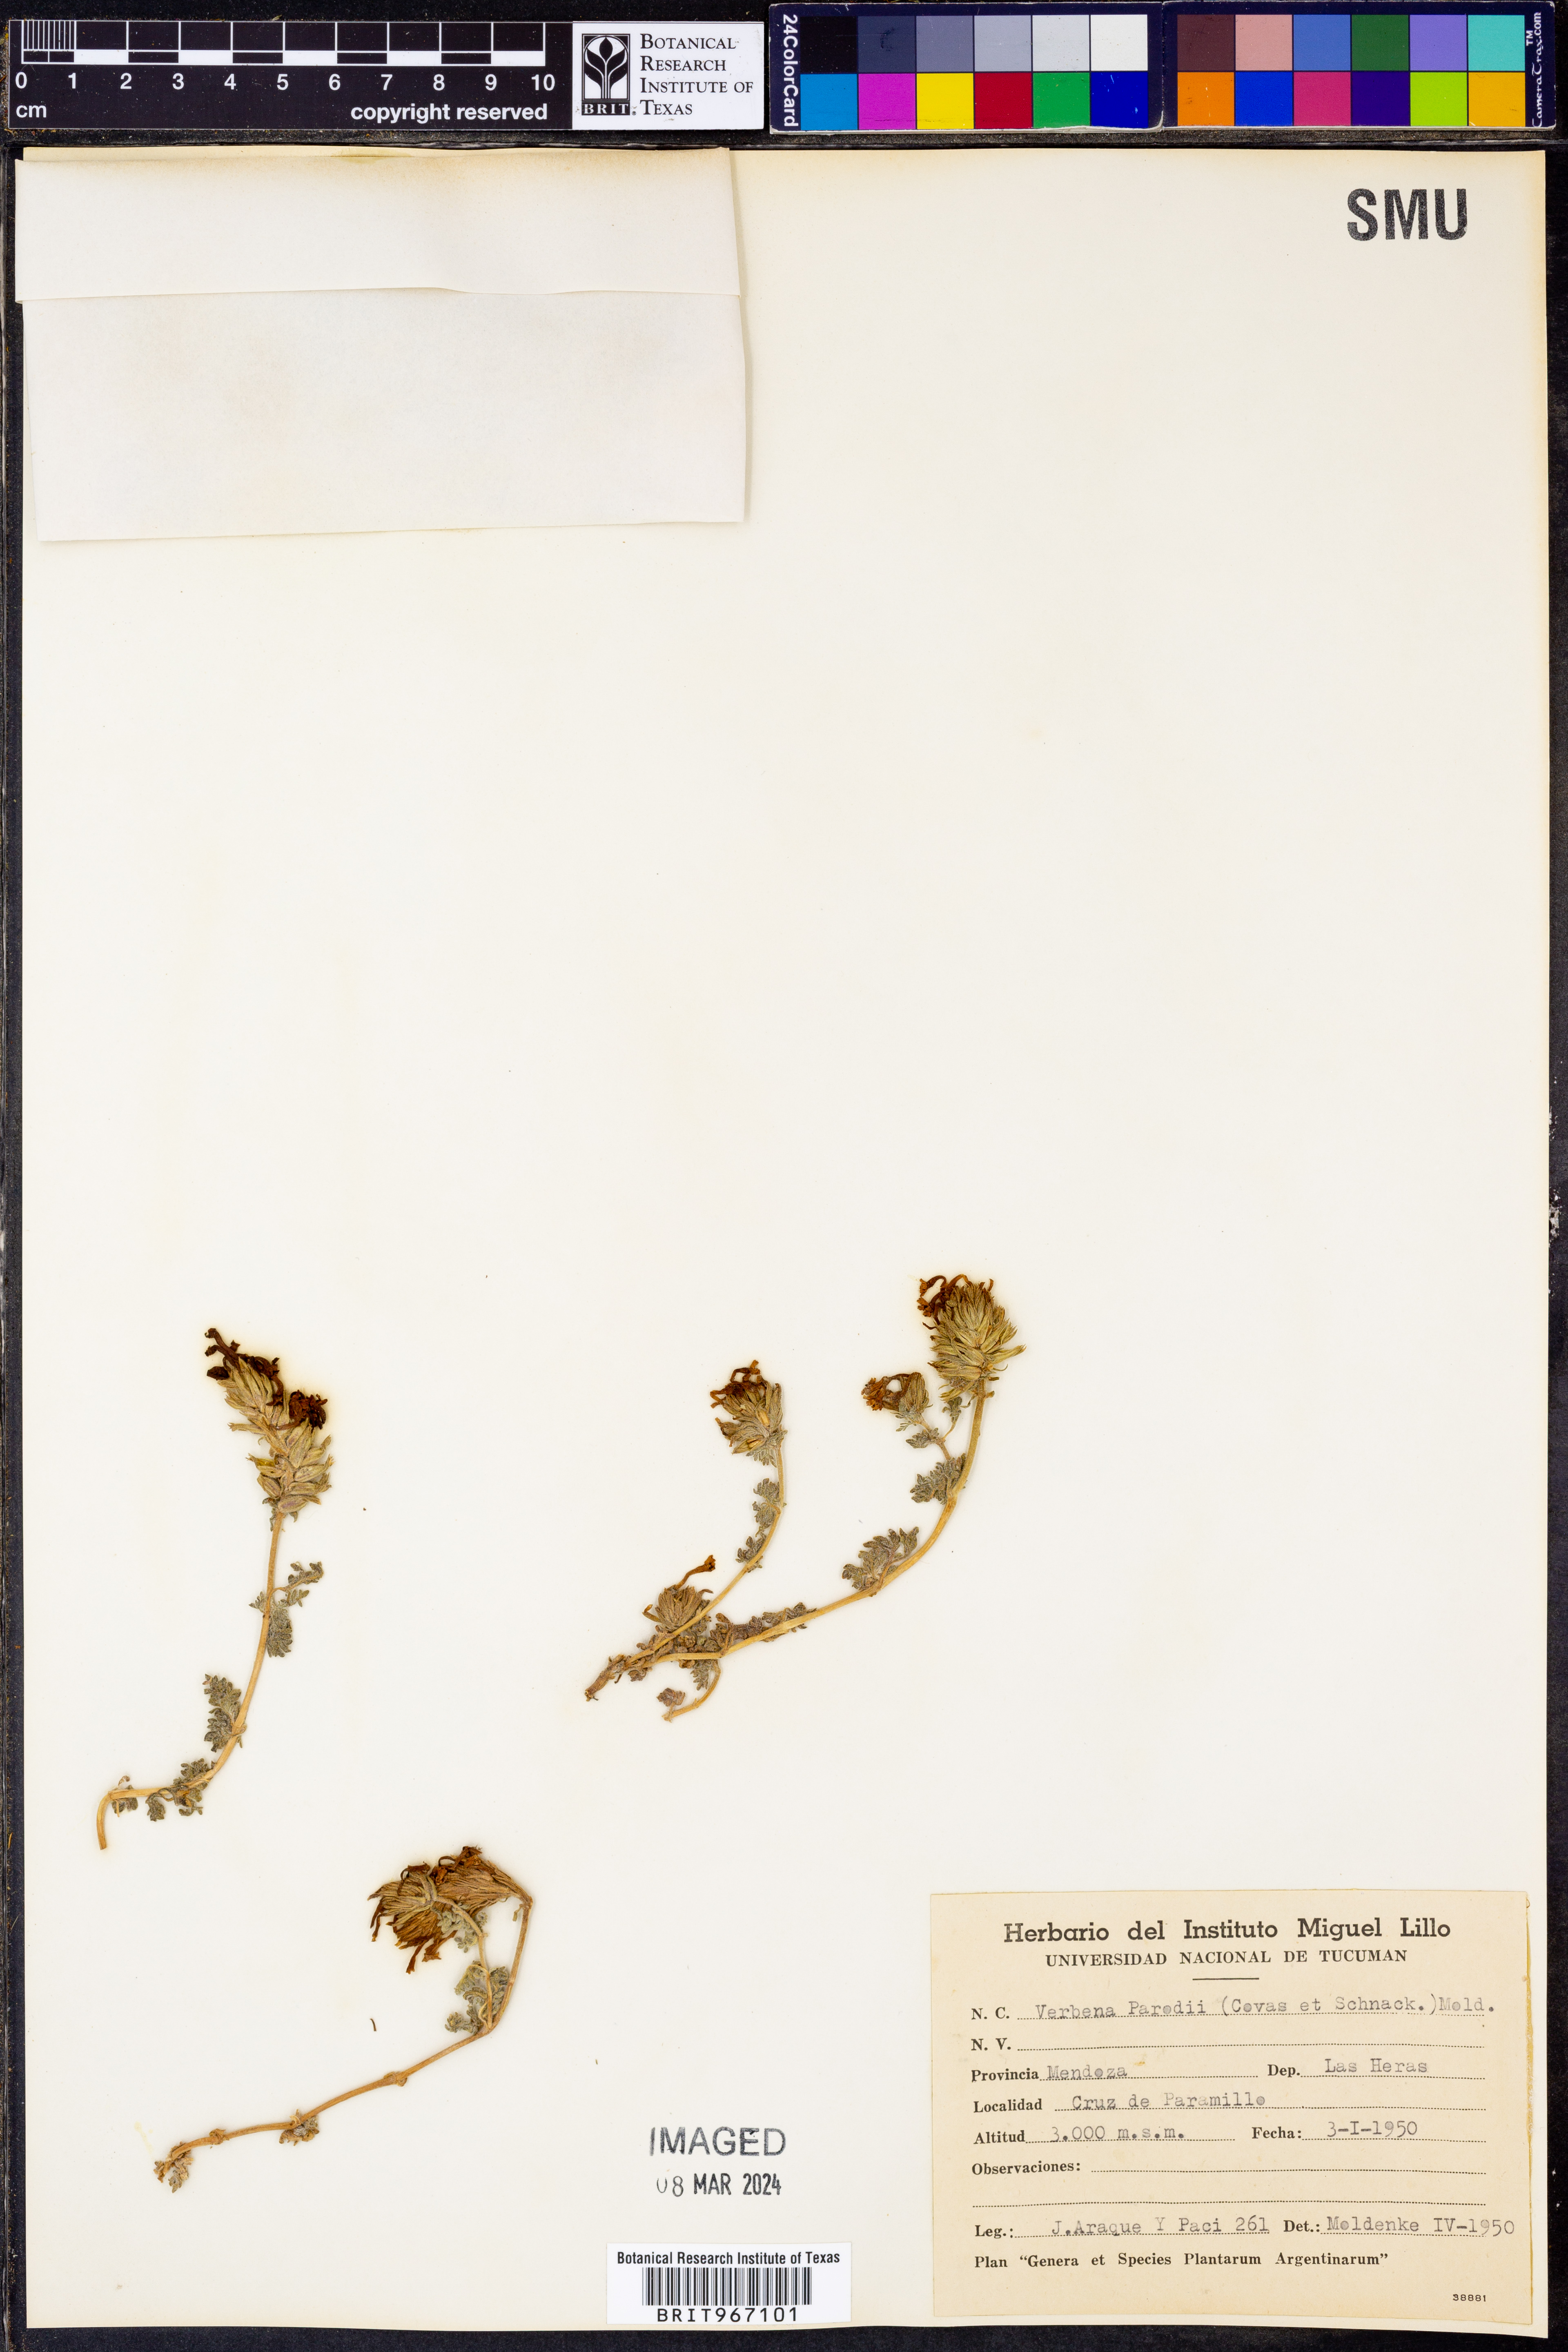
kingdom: Plantae
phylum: Tracheophyta
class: Magnoliopsida
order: Lamiales
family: Verbenaceae
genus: Verbena
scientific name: Verbena
